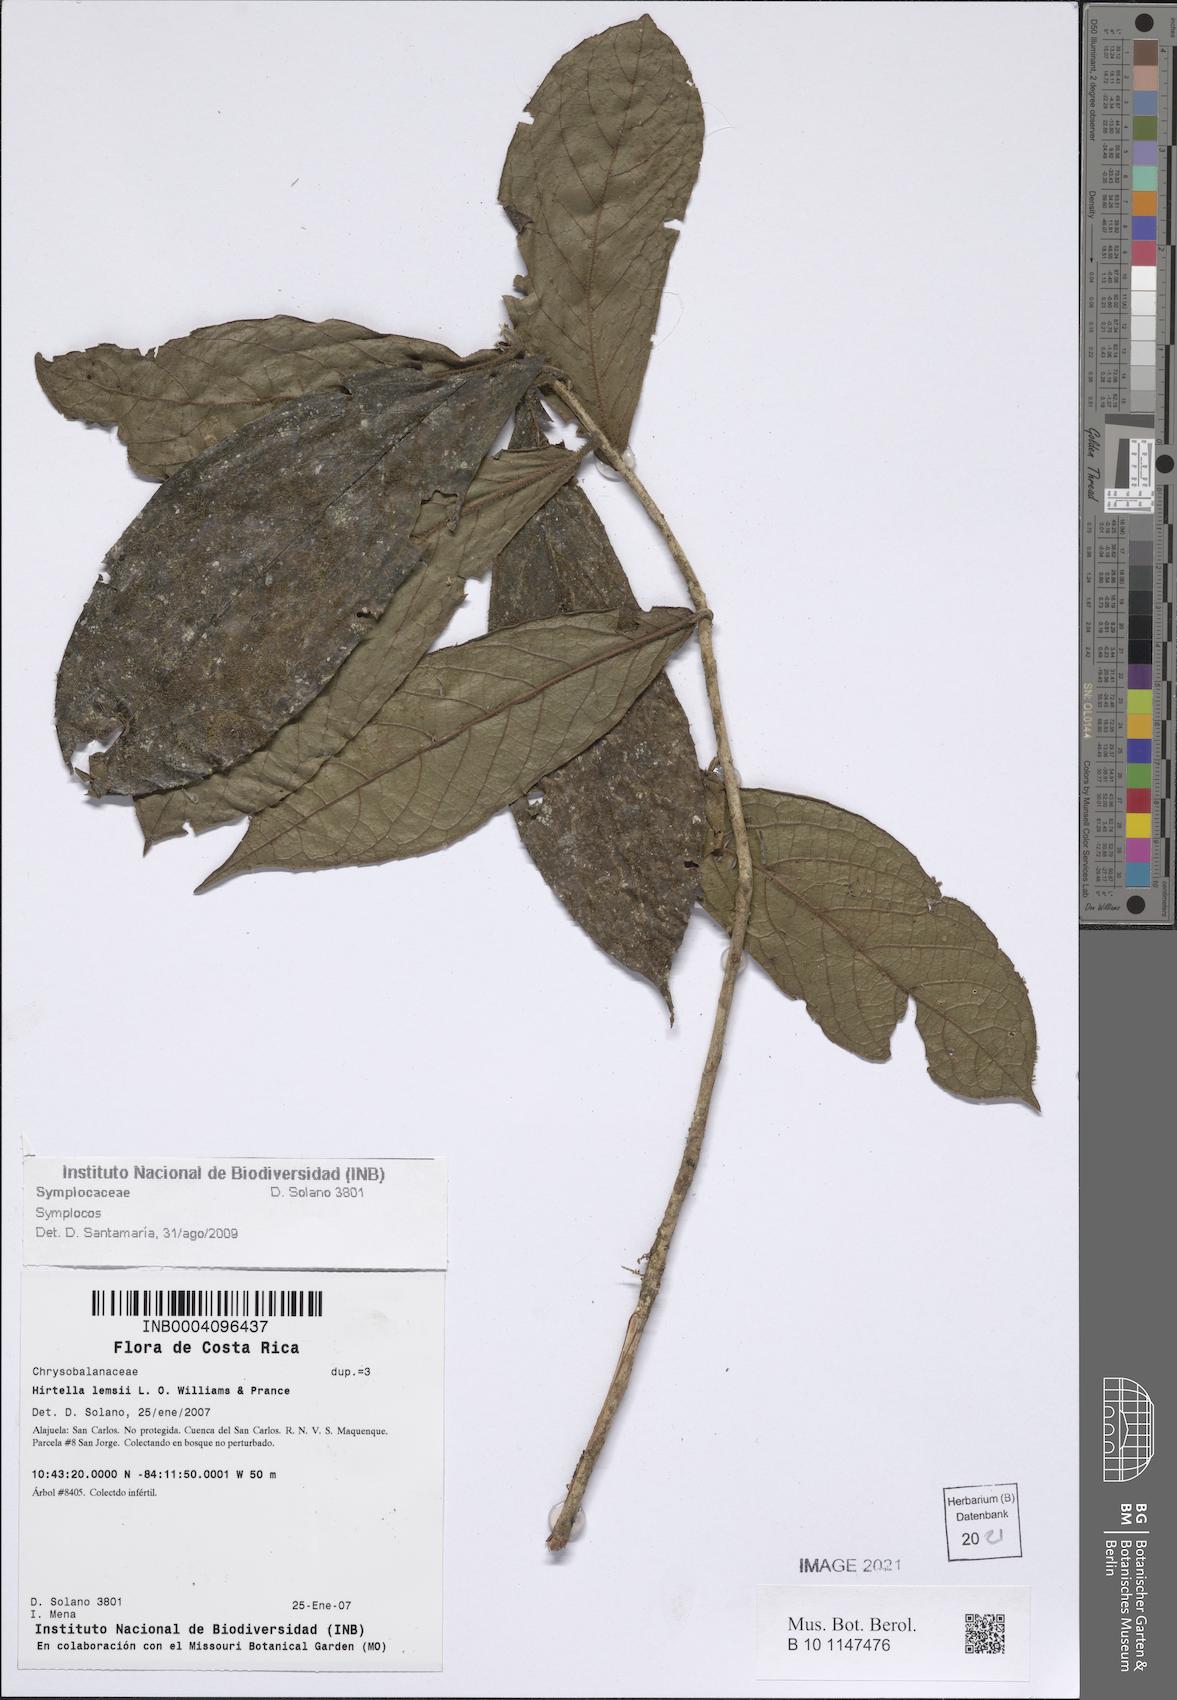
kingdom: Plantae
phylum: Tracheophyta
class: Magnoliopsida
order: Ericales
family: Symplocaceae
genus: Symplocos
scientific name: Symplocos
